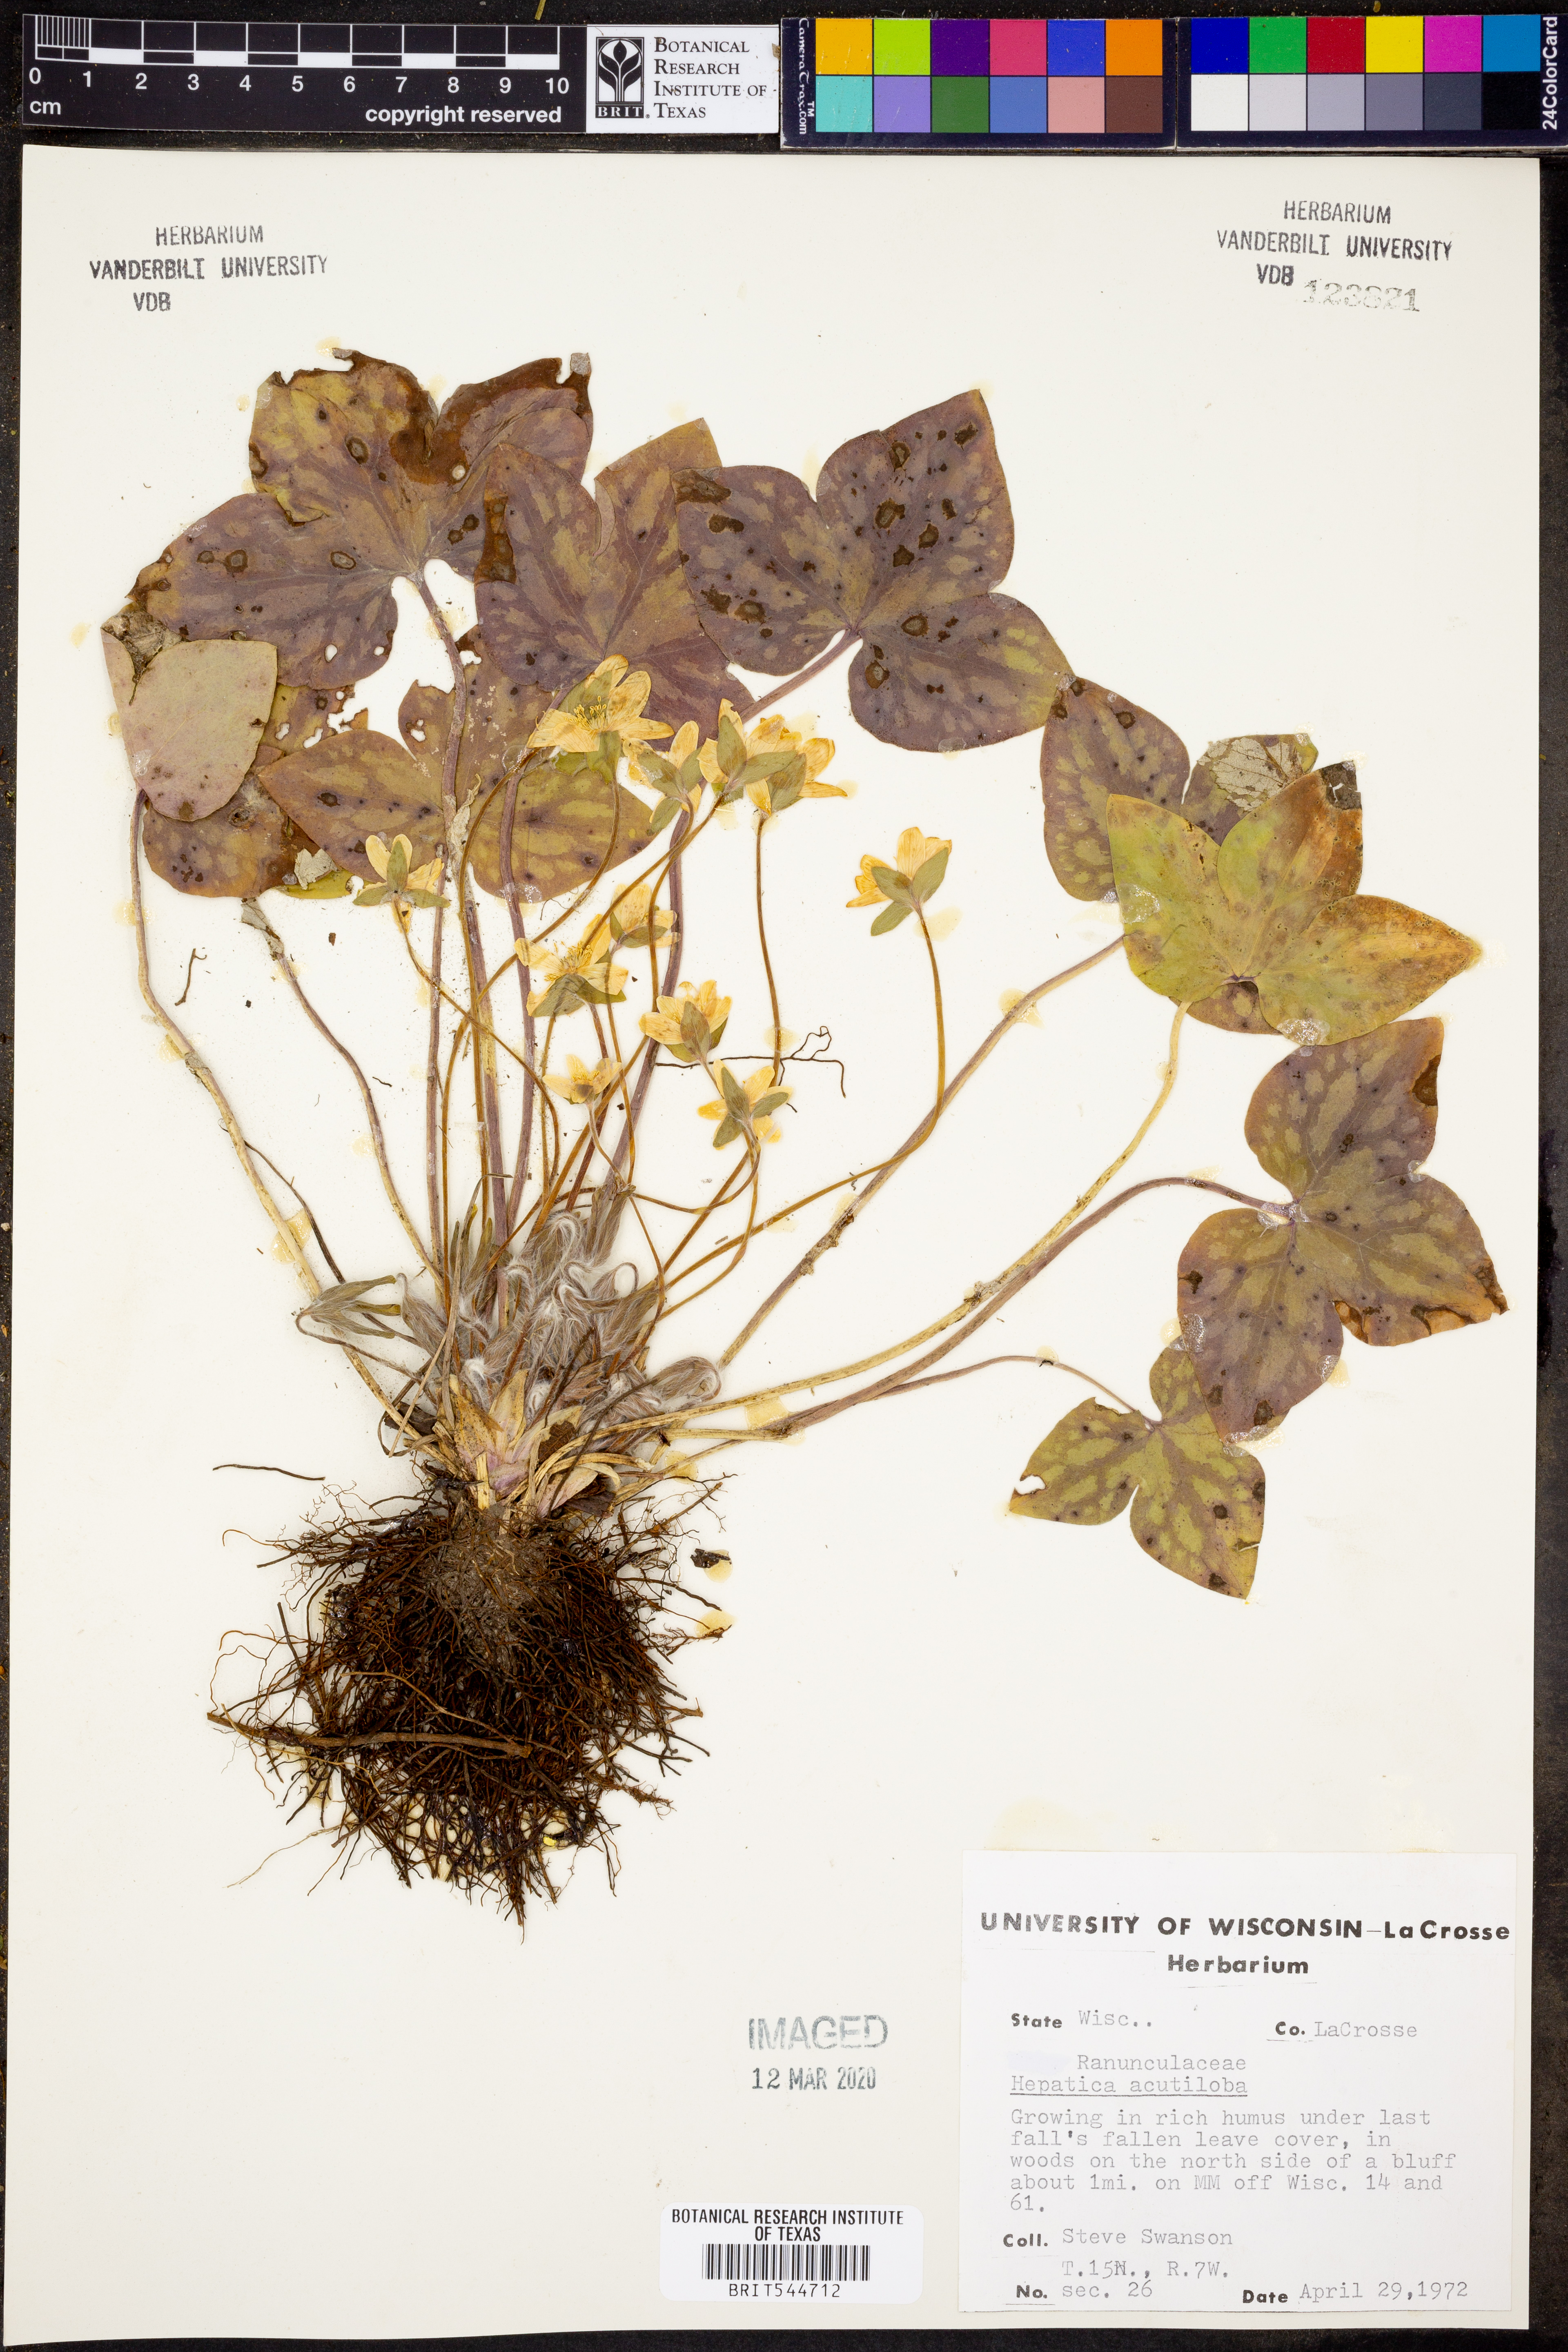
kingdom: Plantae
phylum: Tracheophyta
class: Magnoliopsida
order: Ranunculales
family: Ranunculaceae
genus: Hepatica
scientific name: Hepatica acutiloba
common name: Sharp-lobed hepatica
